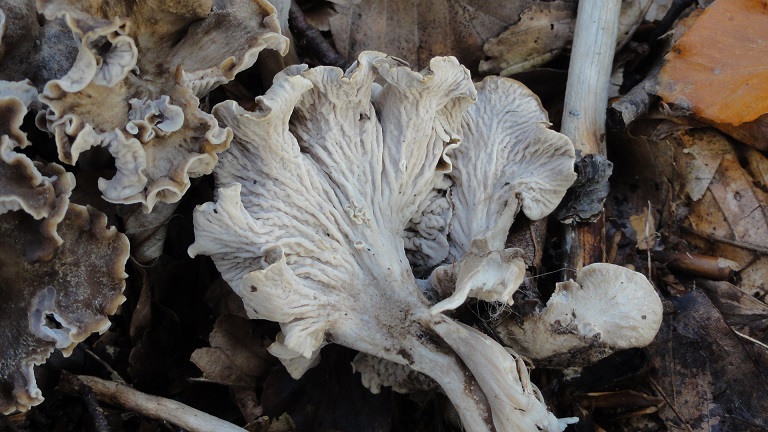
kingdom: Fungi
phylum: Basidiomycota
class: Agaricomycetes
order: Cantharellales
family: Hydnaceae
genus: Craterellus
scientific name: Craterellus undulatus
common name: liden kantarel
